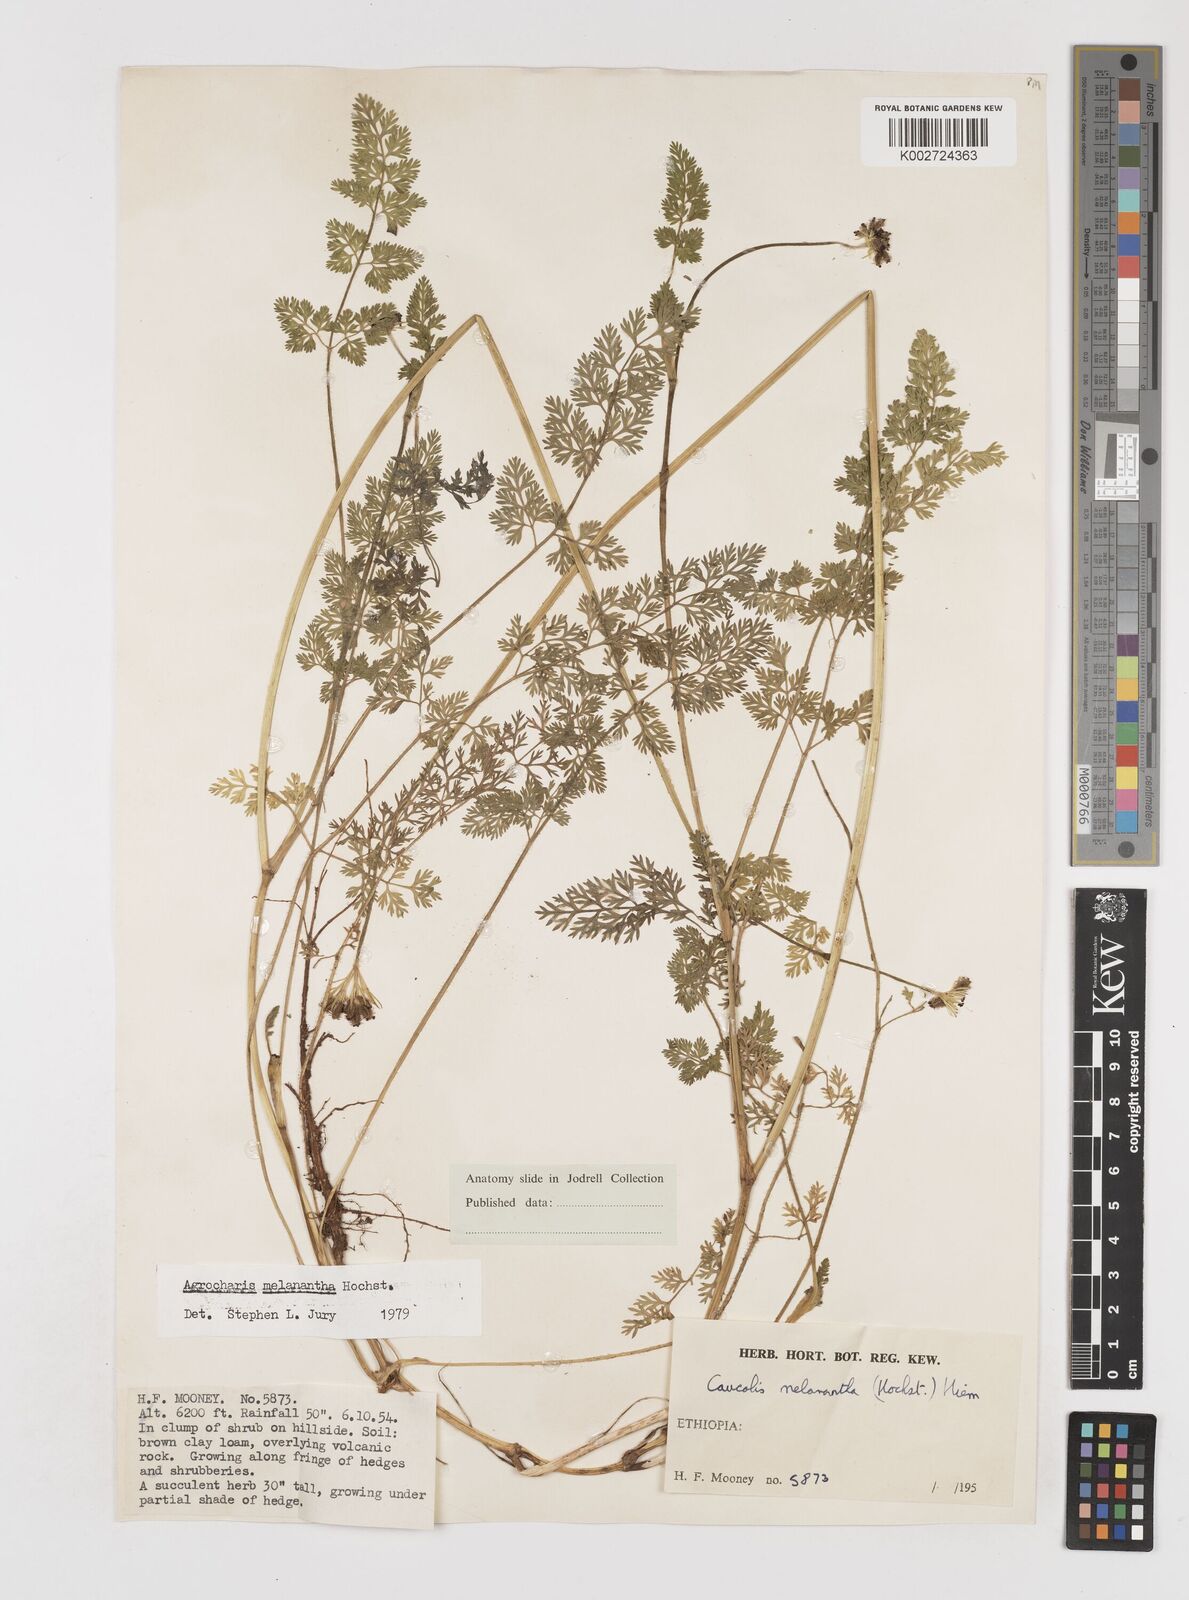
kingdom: Plantae
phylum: Tracheophyta
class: Magnoliopsida
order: Apiales
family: Apiaceae
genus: Daucus
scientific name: Daucus melananthus
